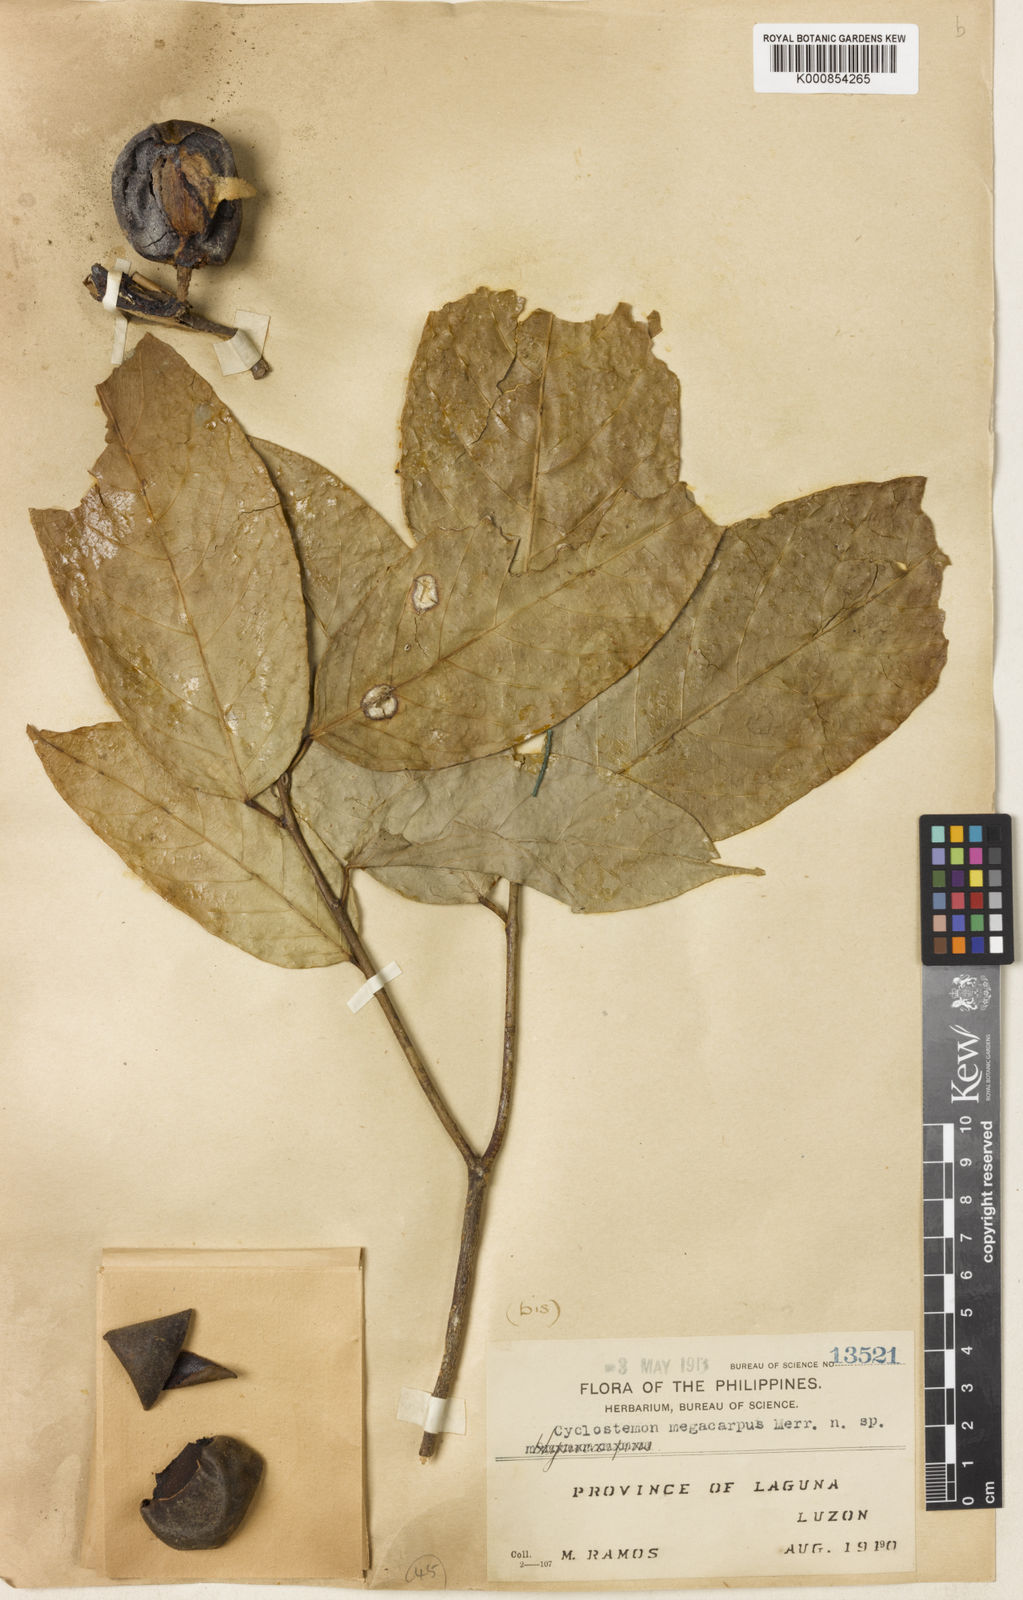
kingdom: Plantae
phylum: Tracheophyta
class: Magnoliopsida
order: Malpighiales
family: Putranjivaceae
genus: Drypetes
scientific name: Drypetes grandifolia
